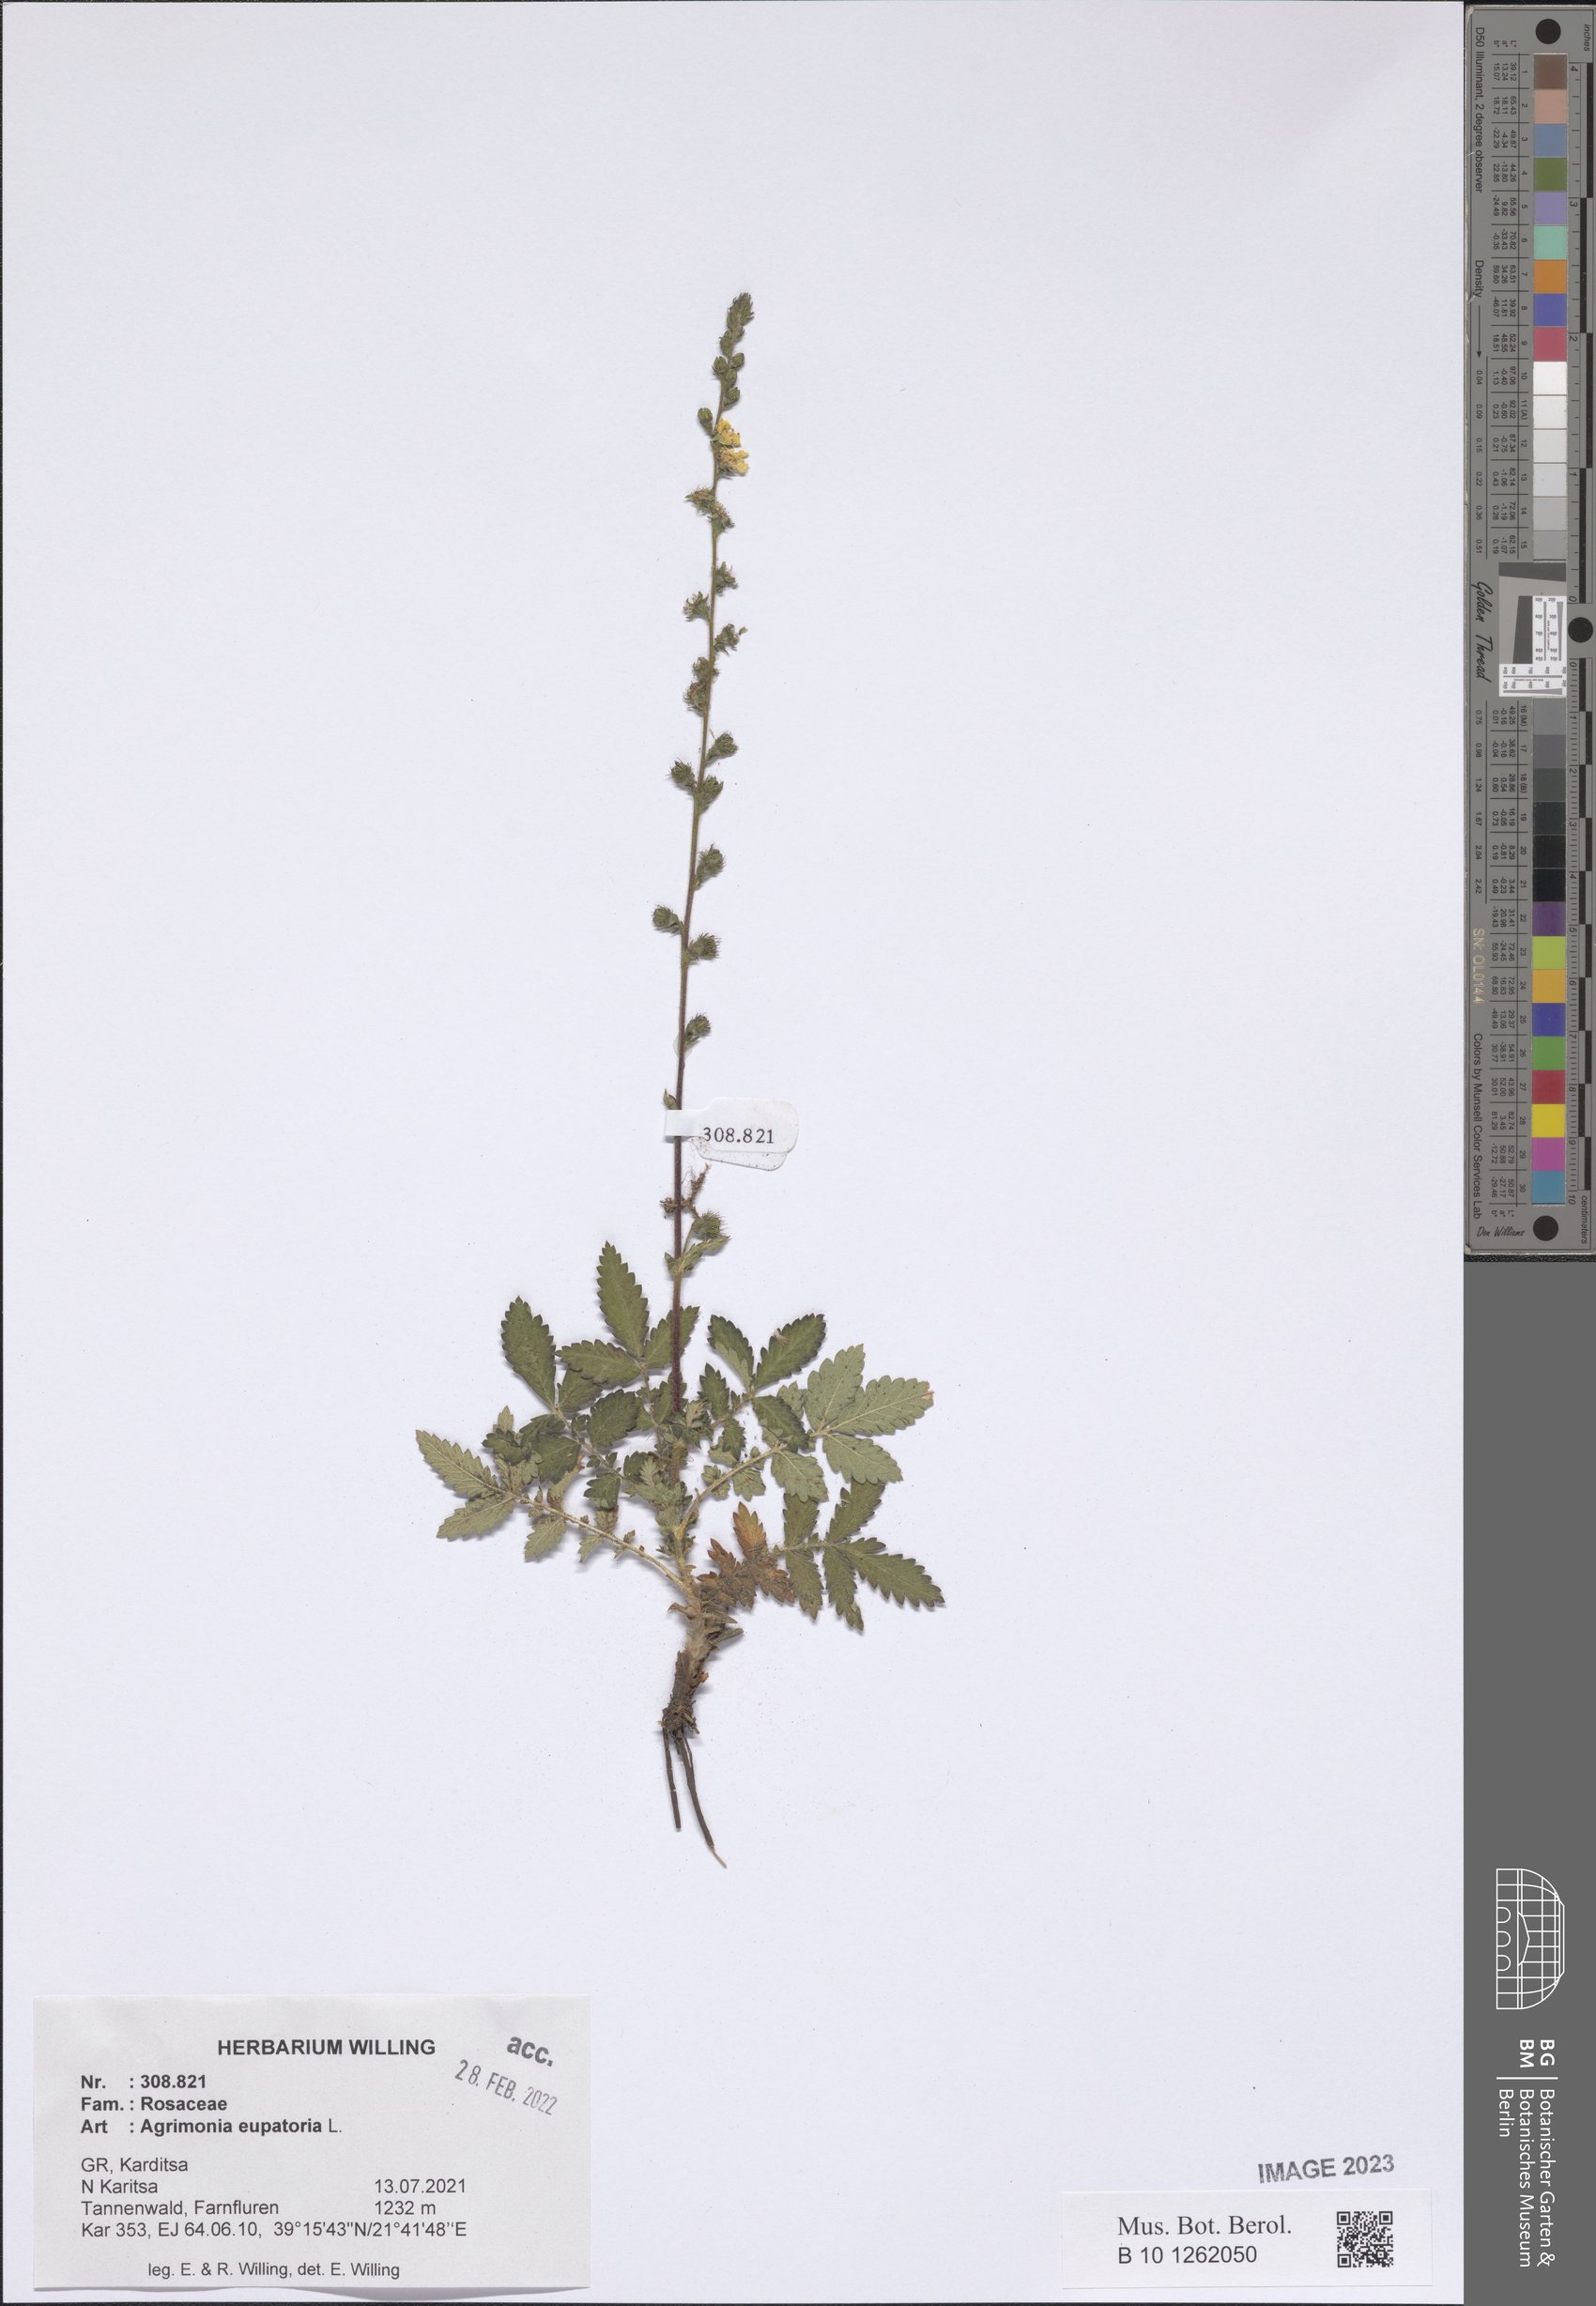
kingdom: Plantae
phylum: Tracheophyta
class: Magnoliopsida
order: Rosales
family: Rosaceae
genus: Agrimonia
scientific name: Agrimonia eupatoria
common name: Agrimony
